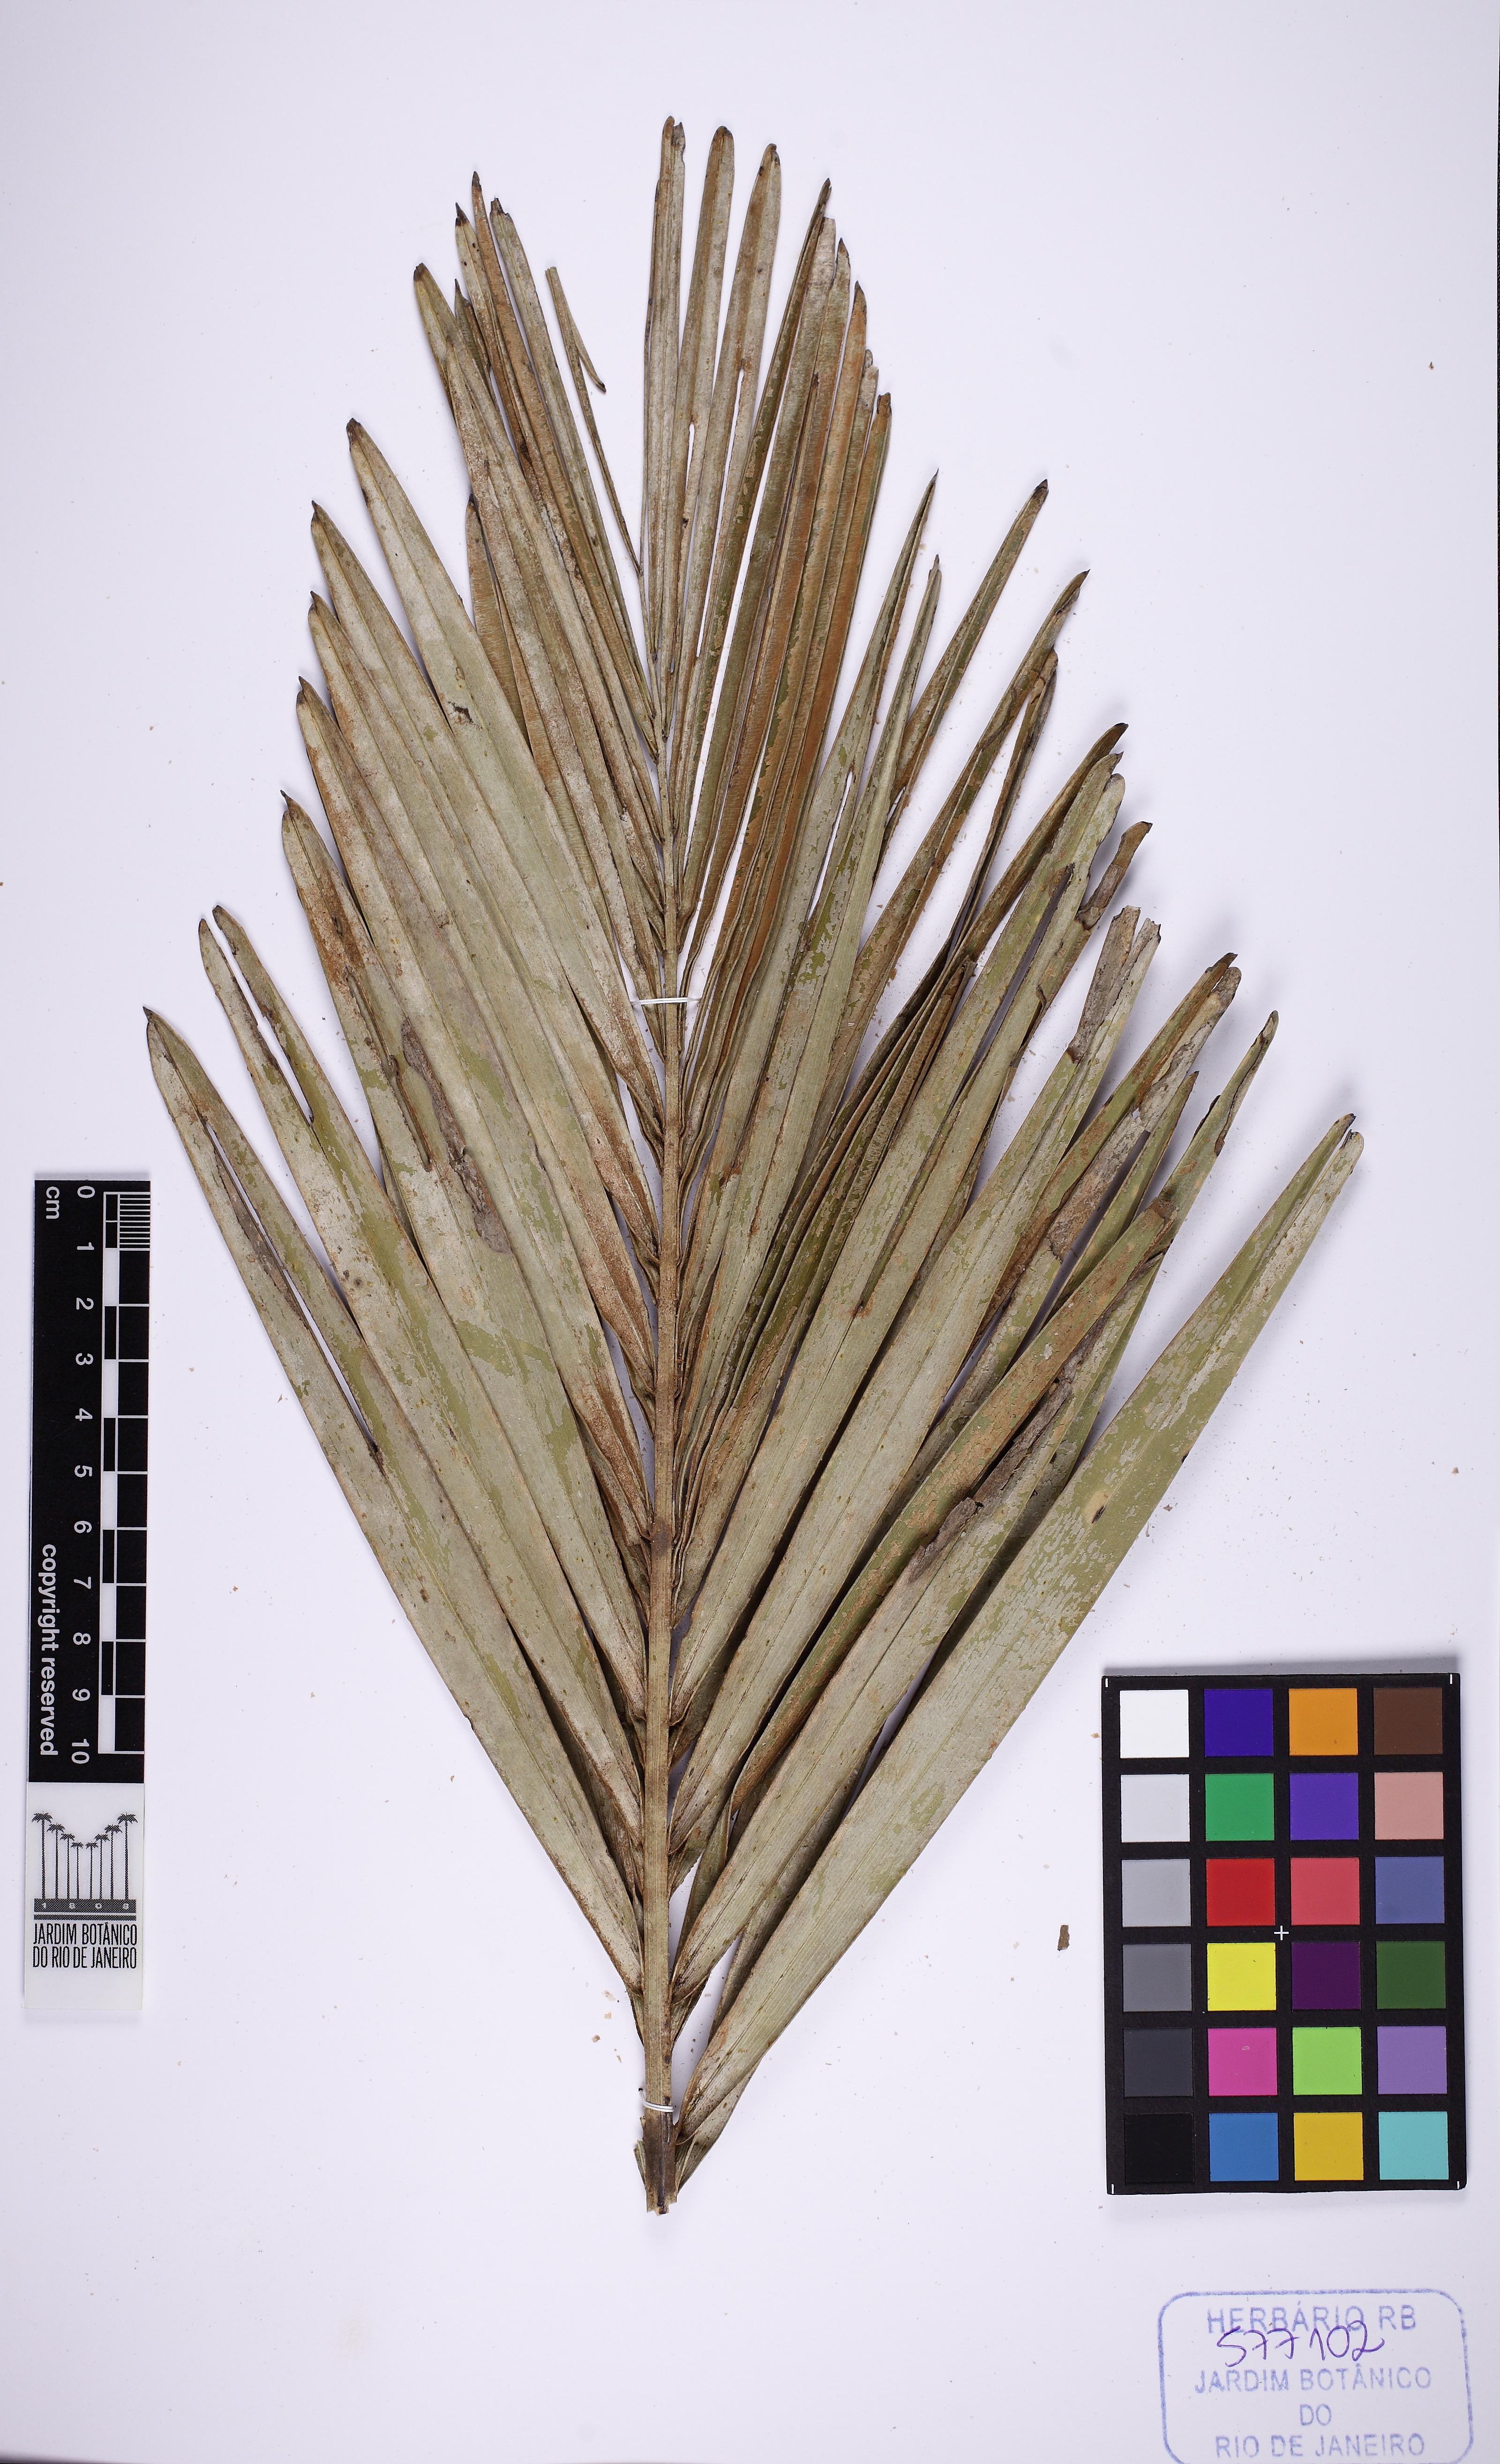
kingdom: Plantae
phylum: Tracheophyta
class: Liliopsida
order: Arecales
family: Arecaceae
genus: Syagrus
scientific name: Syagrus
